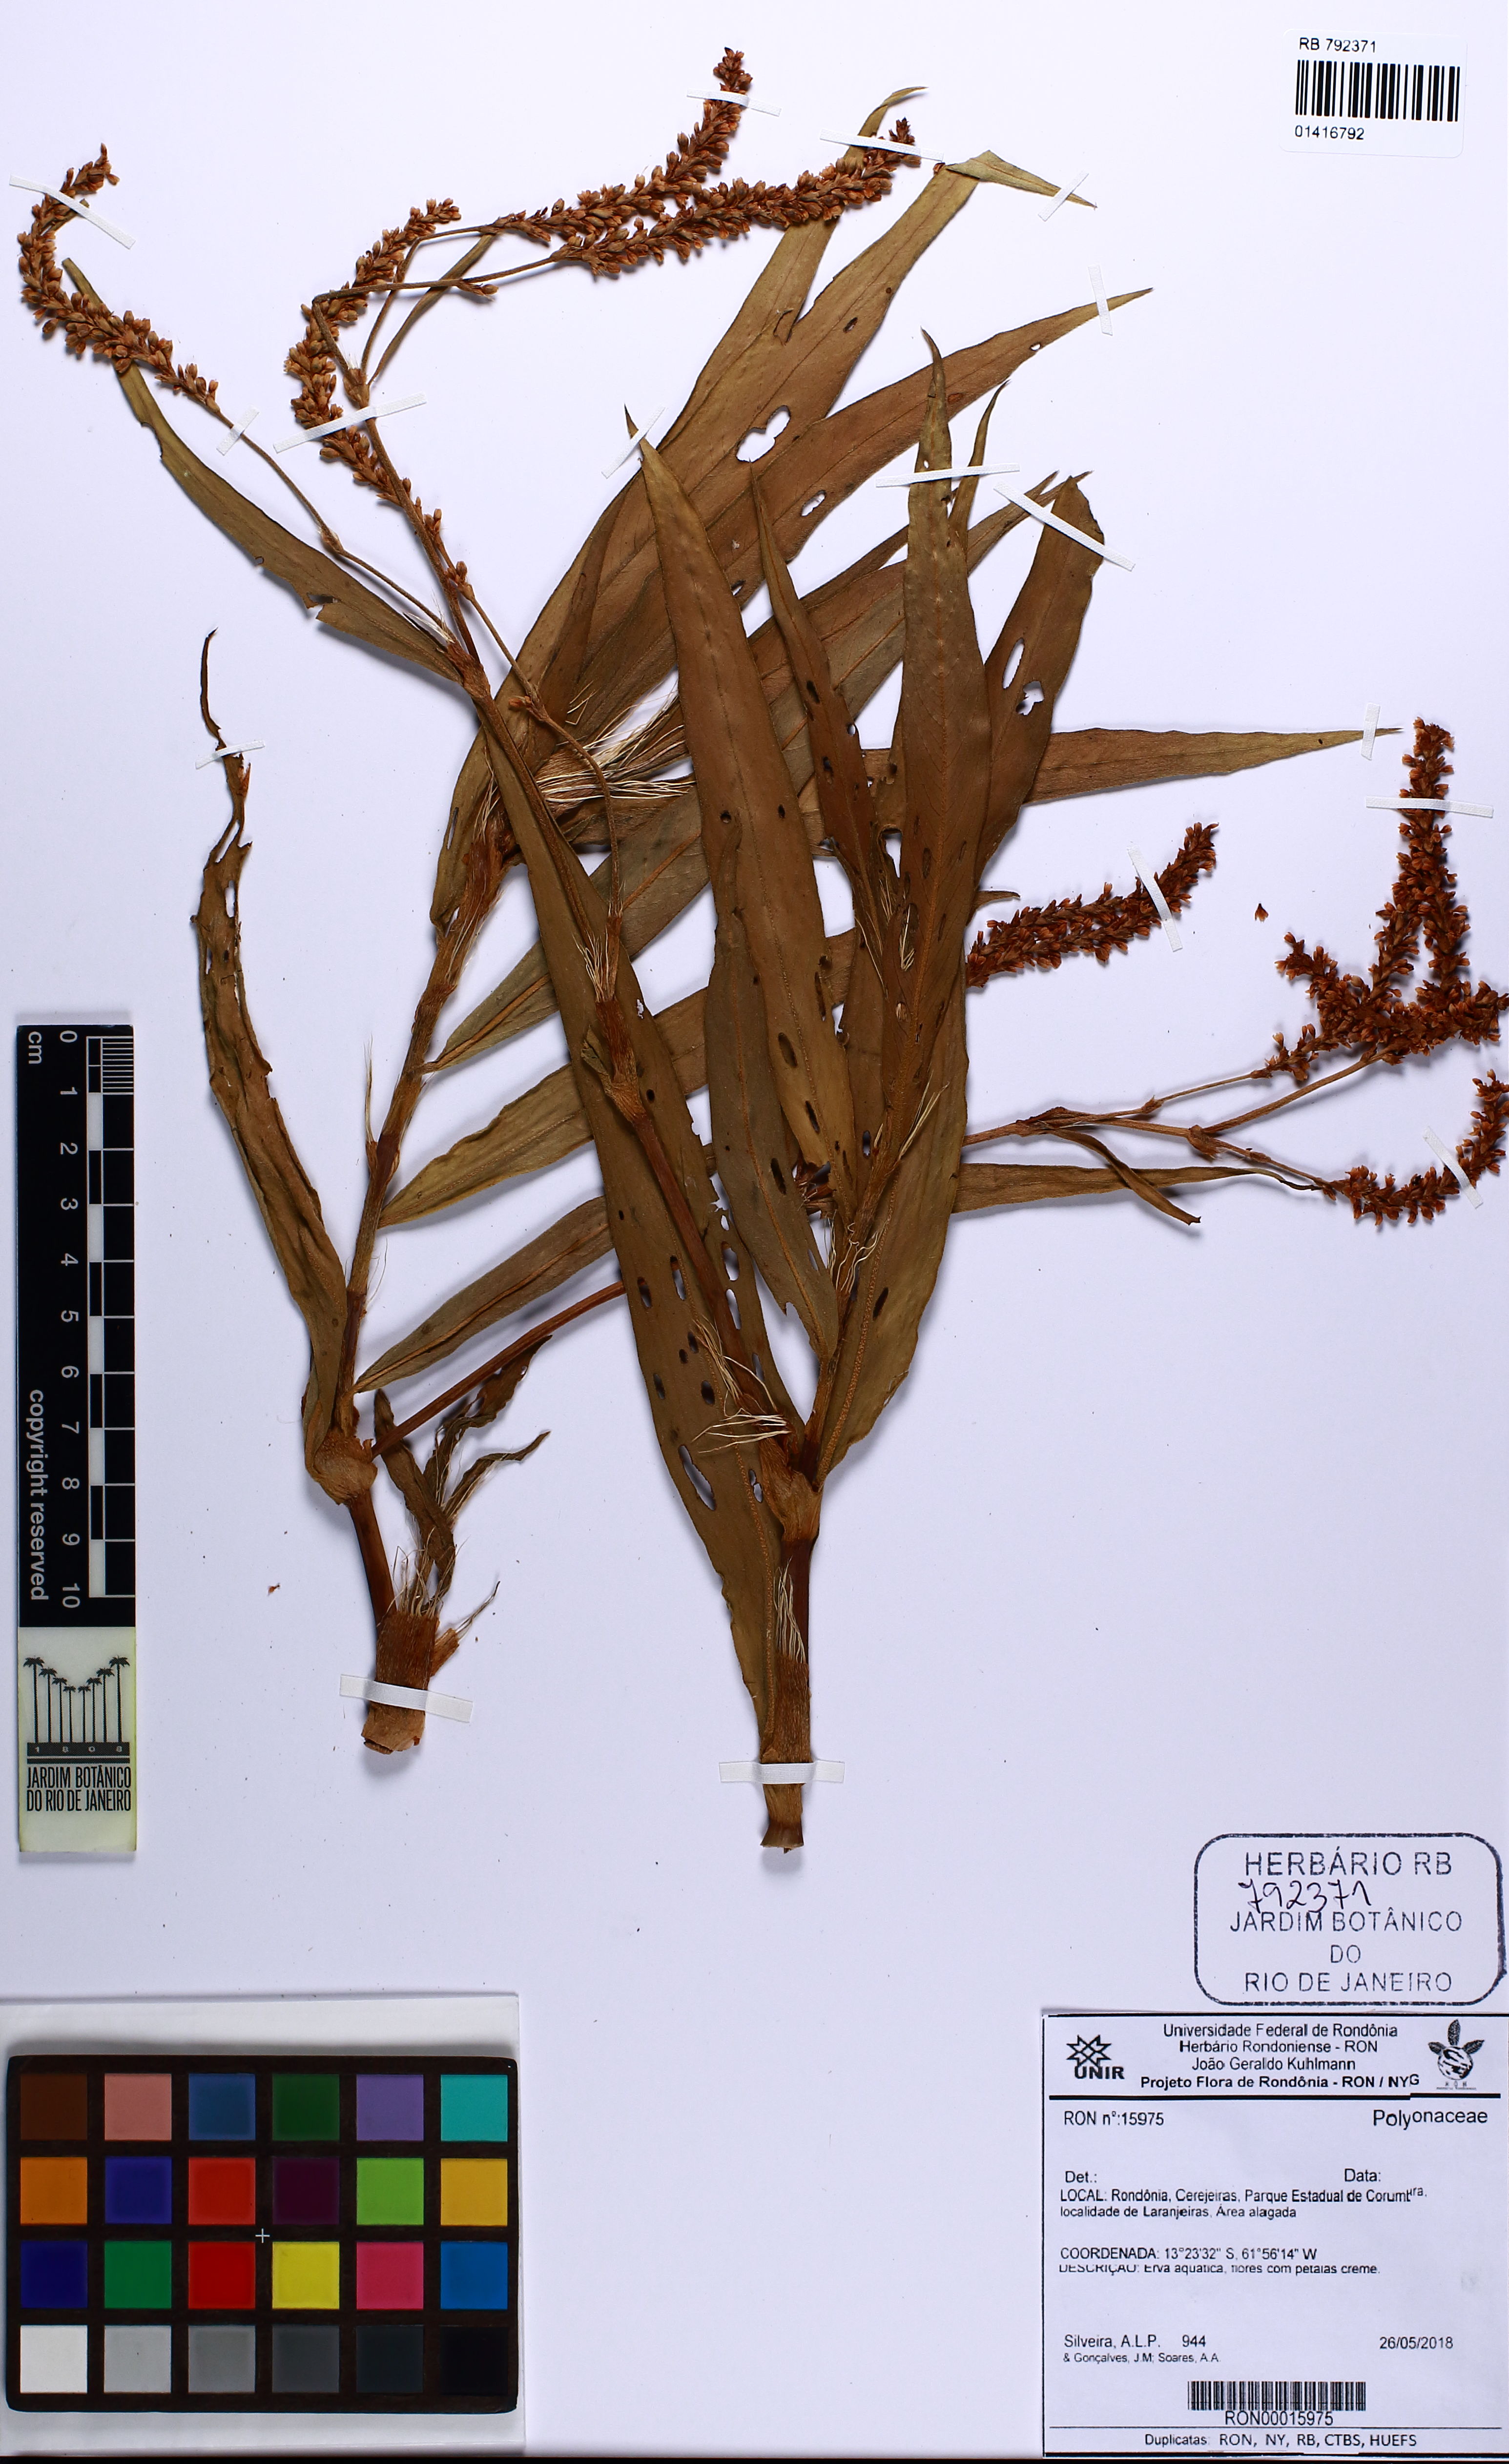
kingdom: Plantae
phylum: Tracheophyta
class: Magnoliopsida
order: Caryophyllales
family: Polygonaceae
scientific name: Polygonaceae
